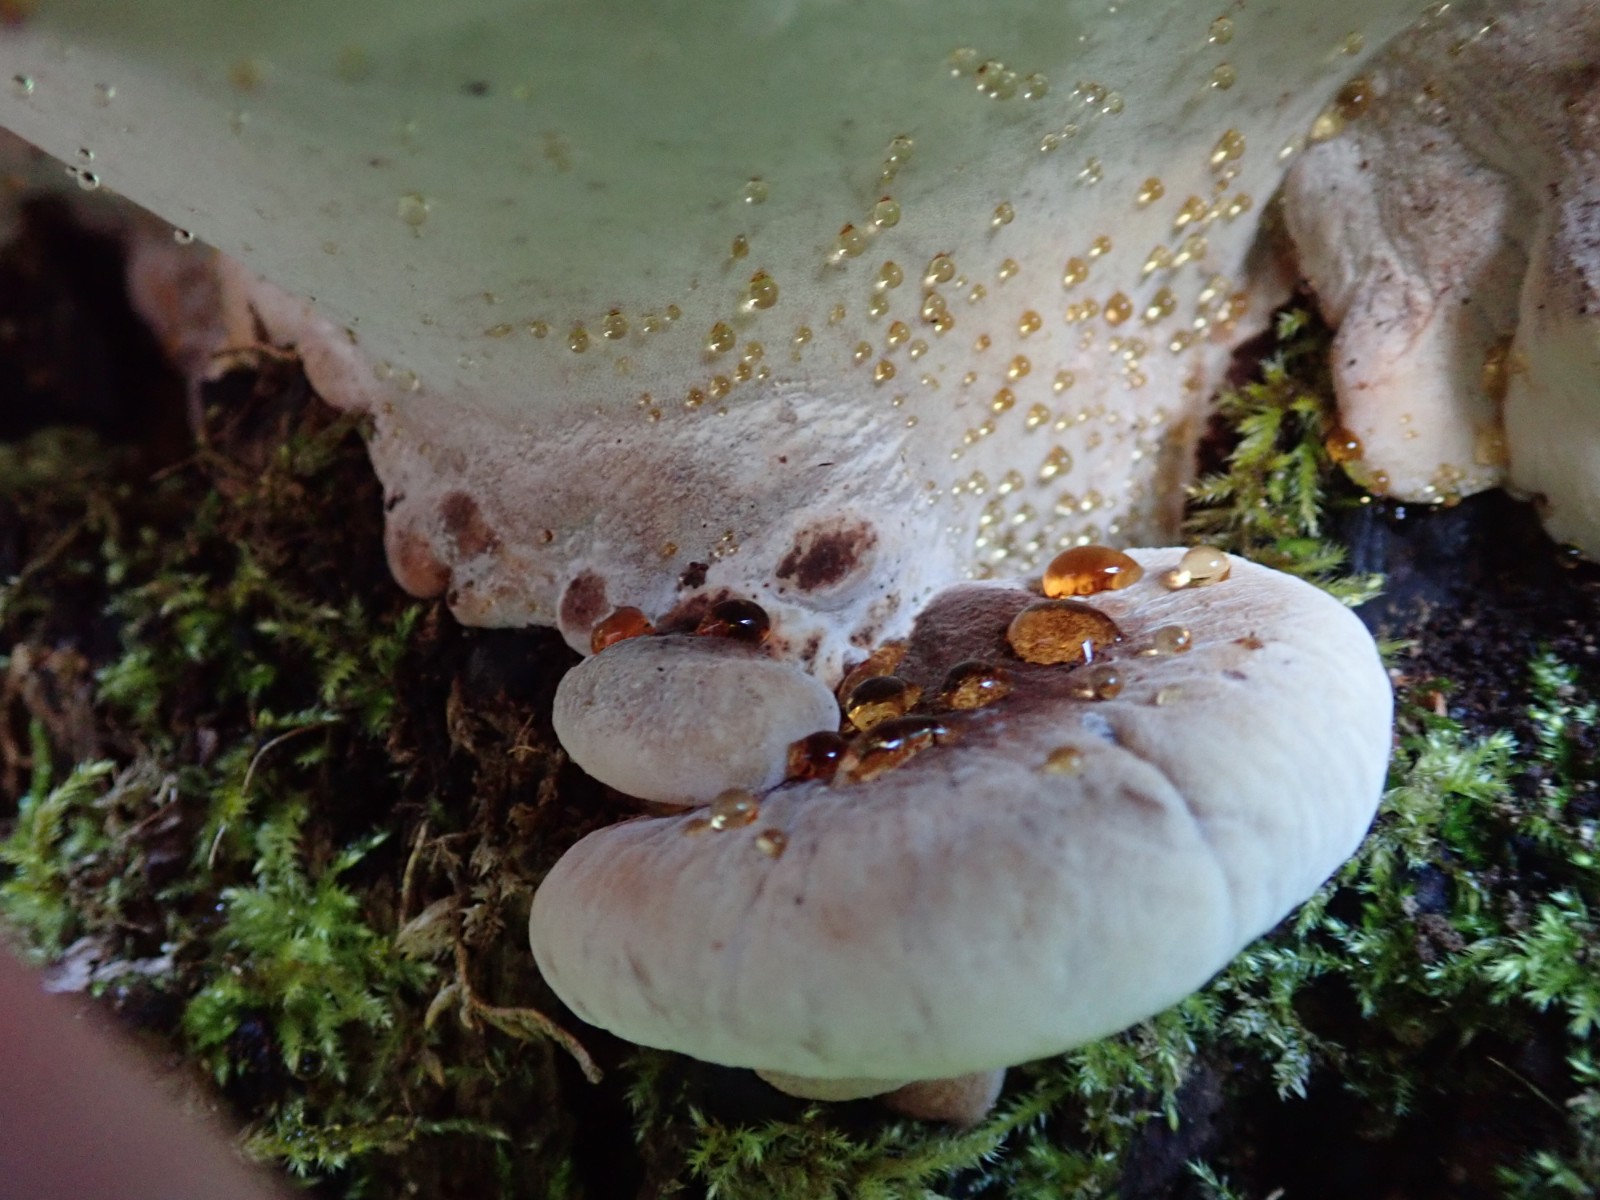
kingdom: Fungi
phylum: Basidiomycota
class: Agaricomycetes
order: Polyporales
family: Ischnodermataceae
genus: Ischnoderma
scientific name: Ischnoderma resinosum
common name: løv-tjæreporesvamp
